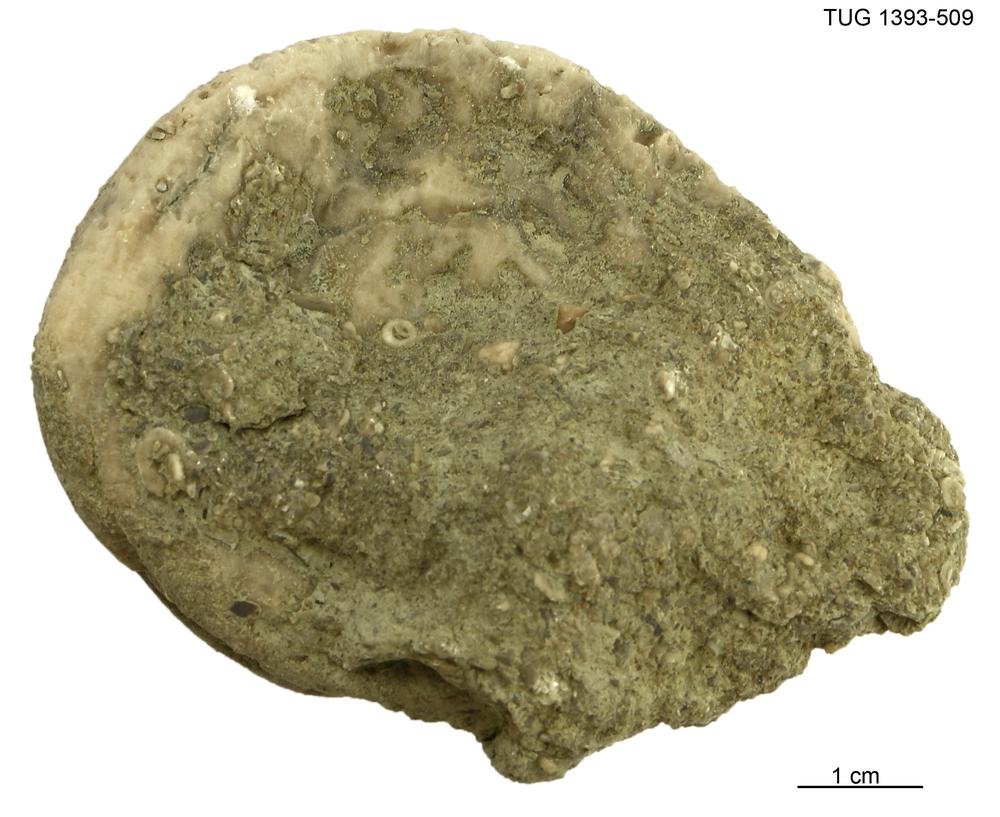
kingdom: Animalia
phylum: Bryozoa
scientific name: Bryozoa
